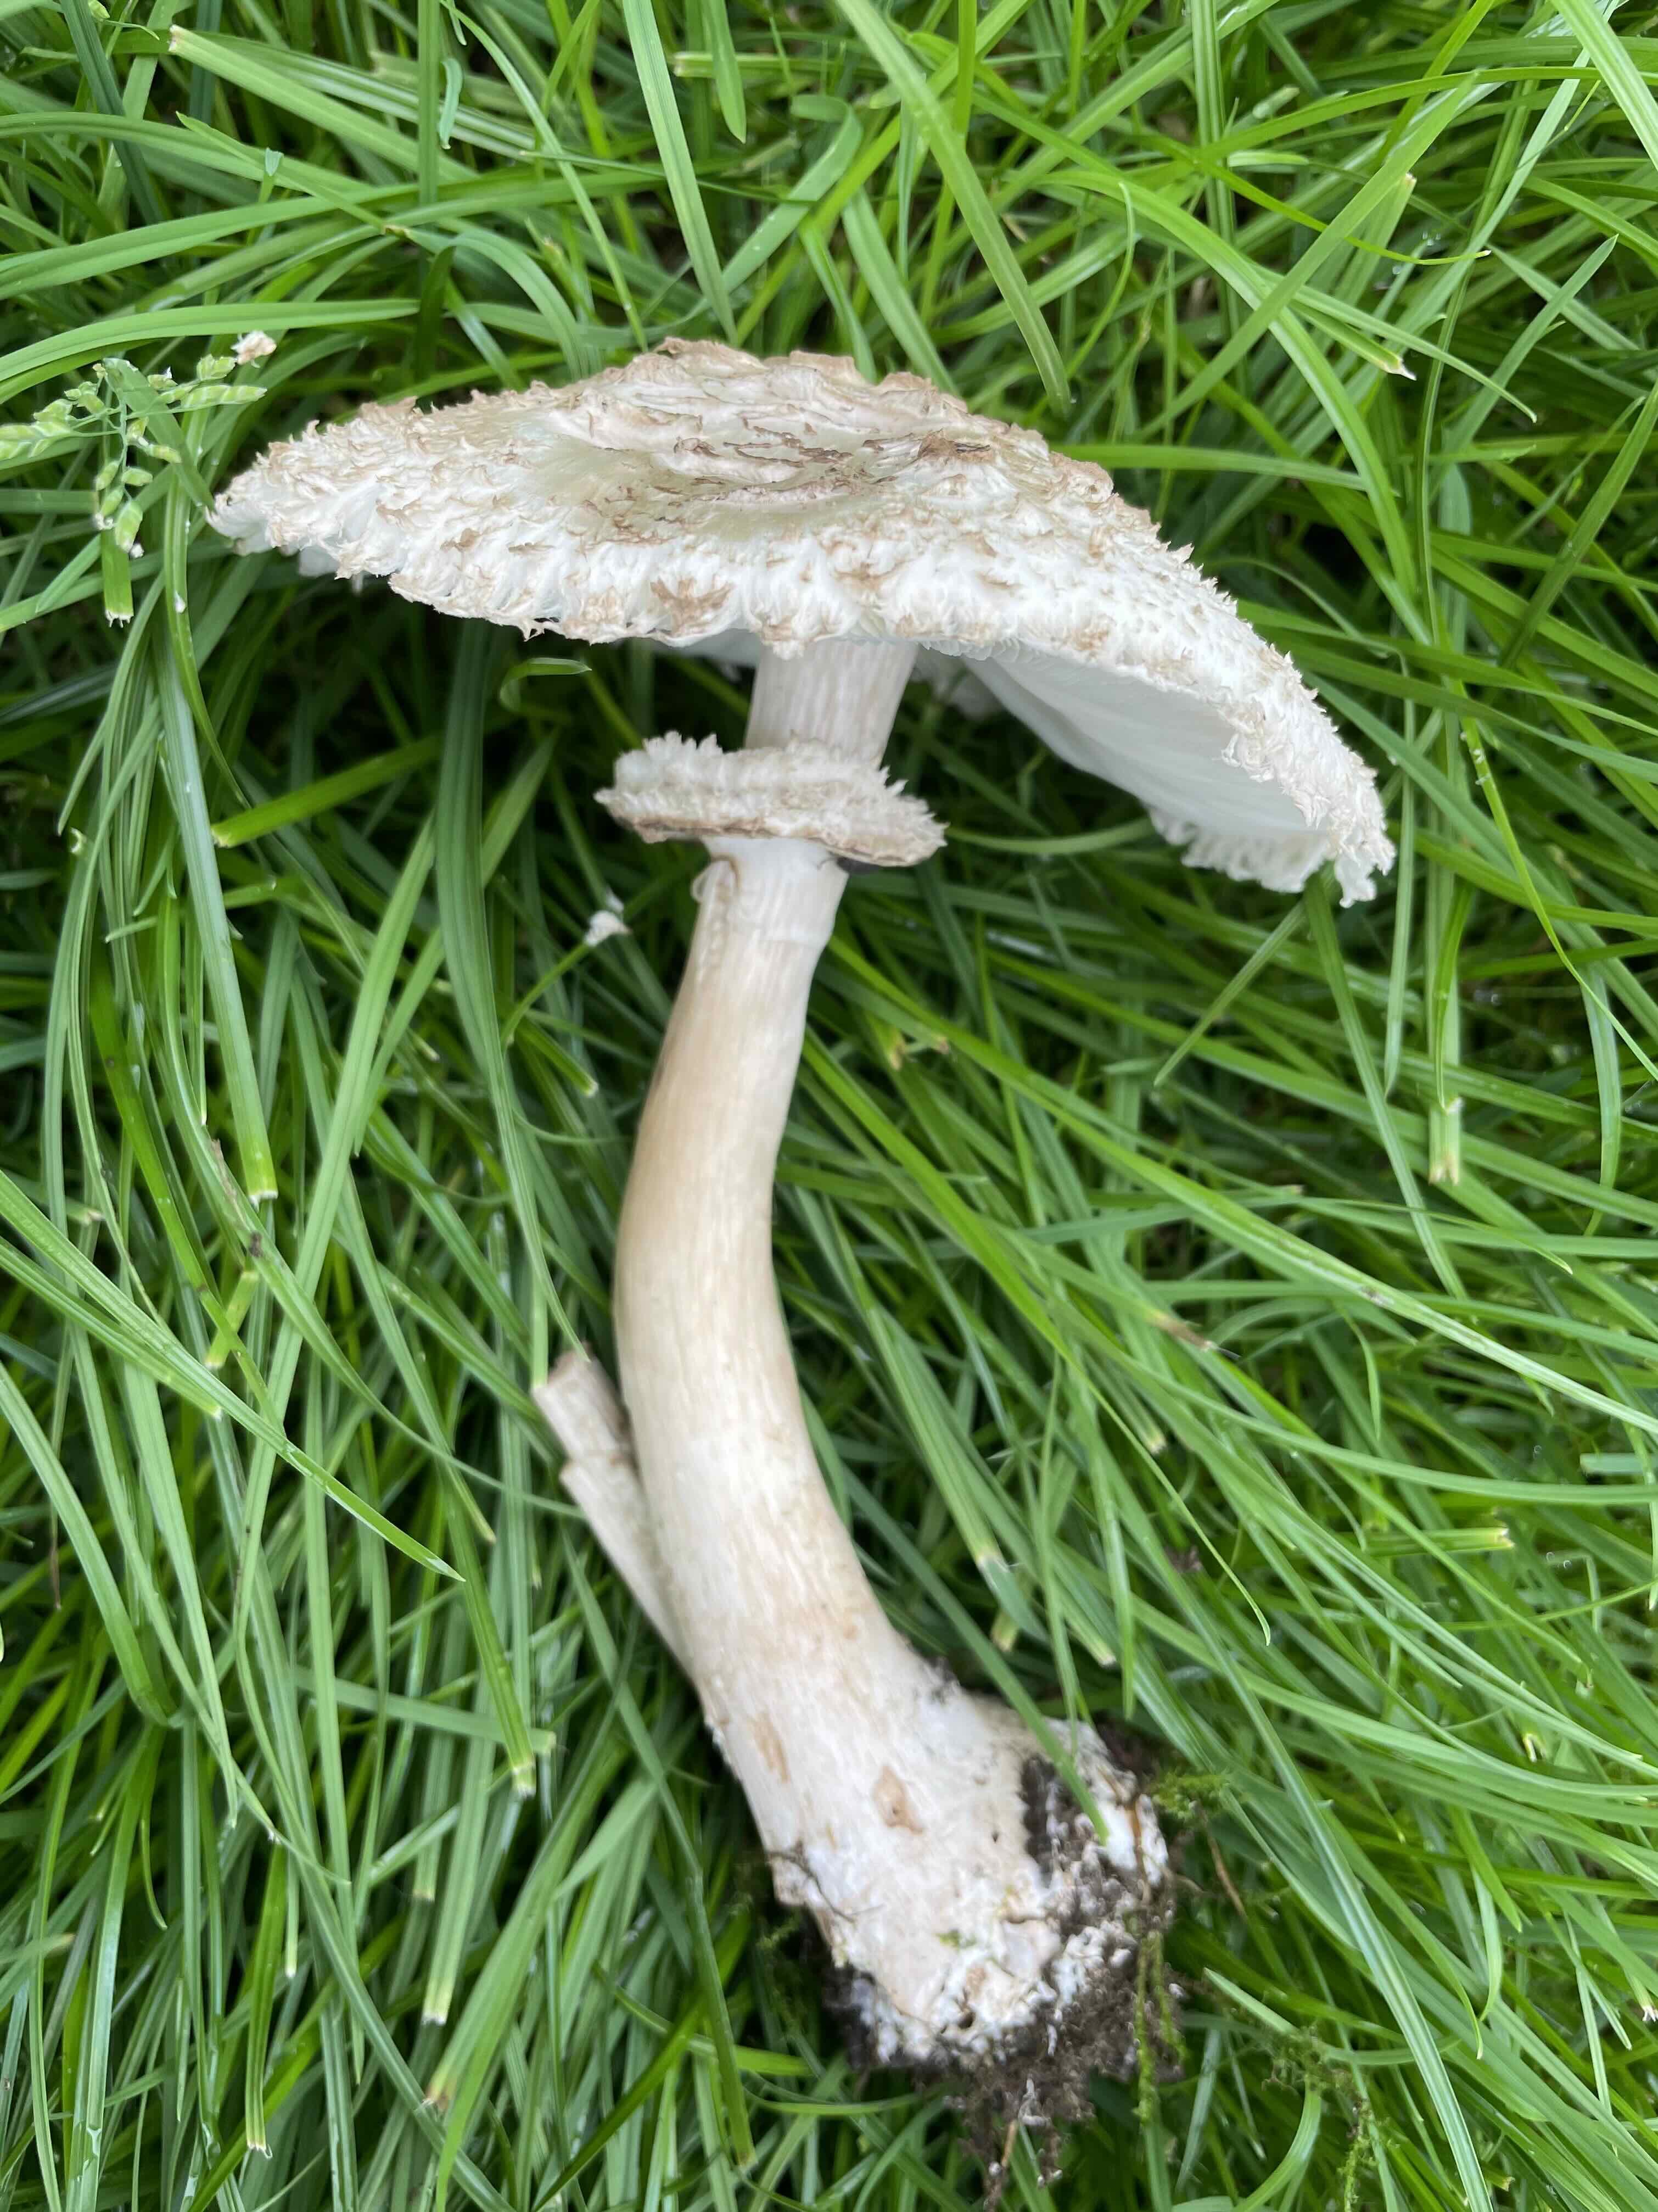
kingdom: Fungi
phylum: Basidiomycota
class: Agaricomycetes
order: Agaricales
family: Agaricaceae
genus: Chlorophyllum
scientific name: Chlorophyllum rhacodes
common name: ægte rabarberhat
